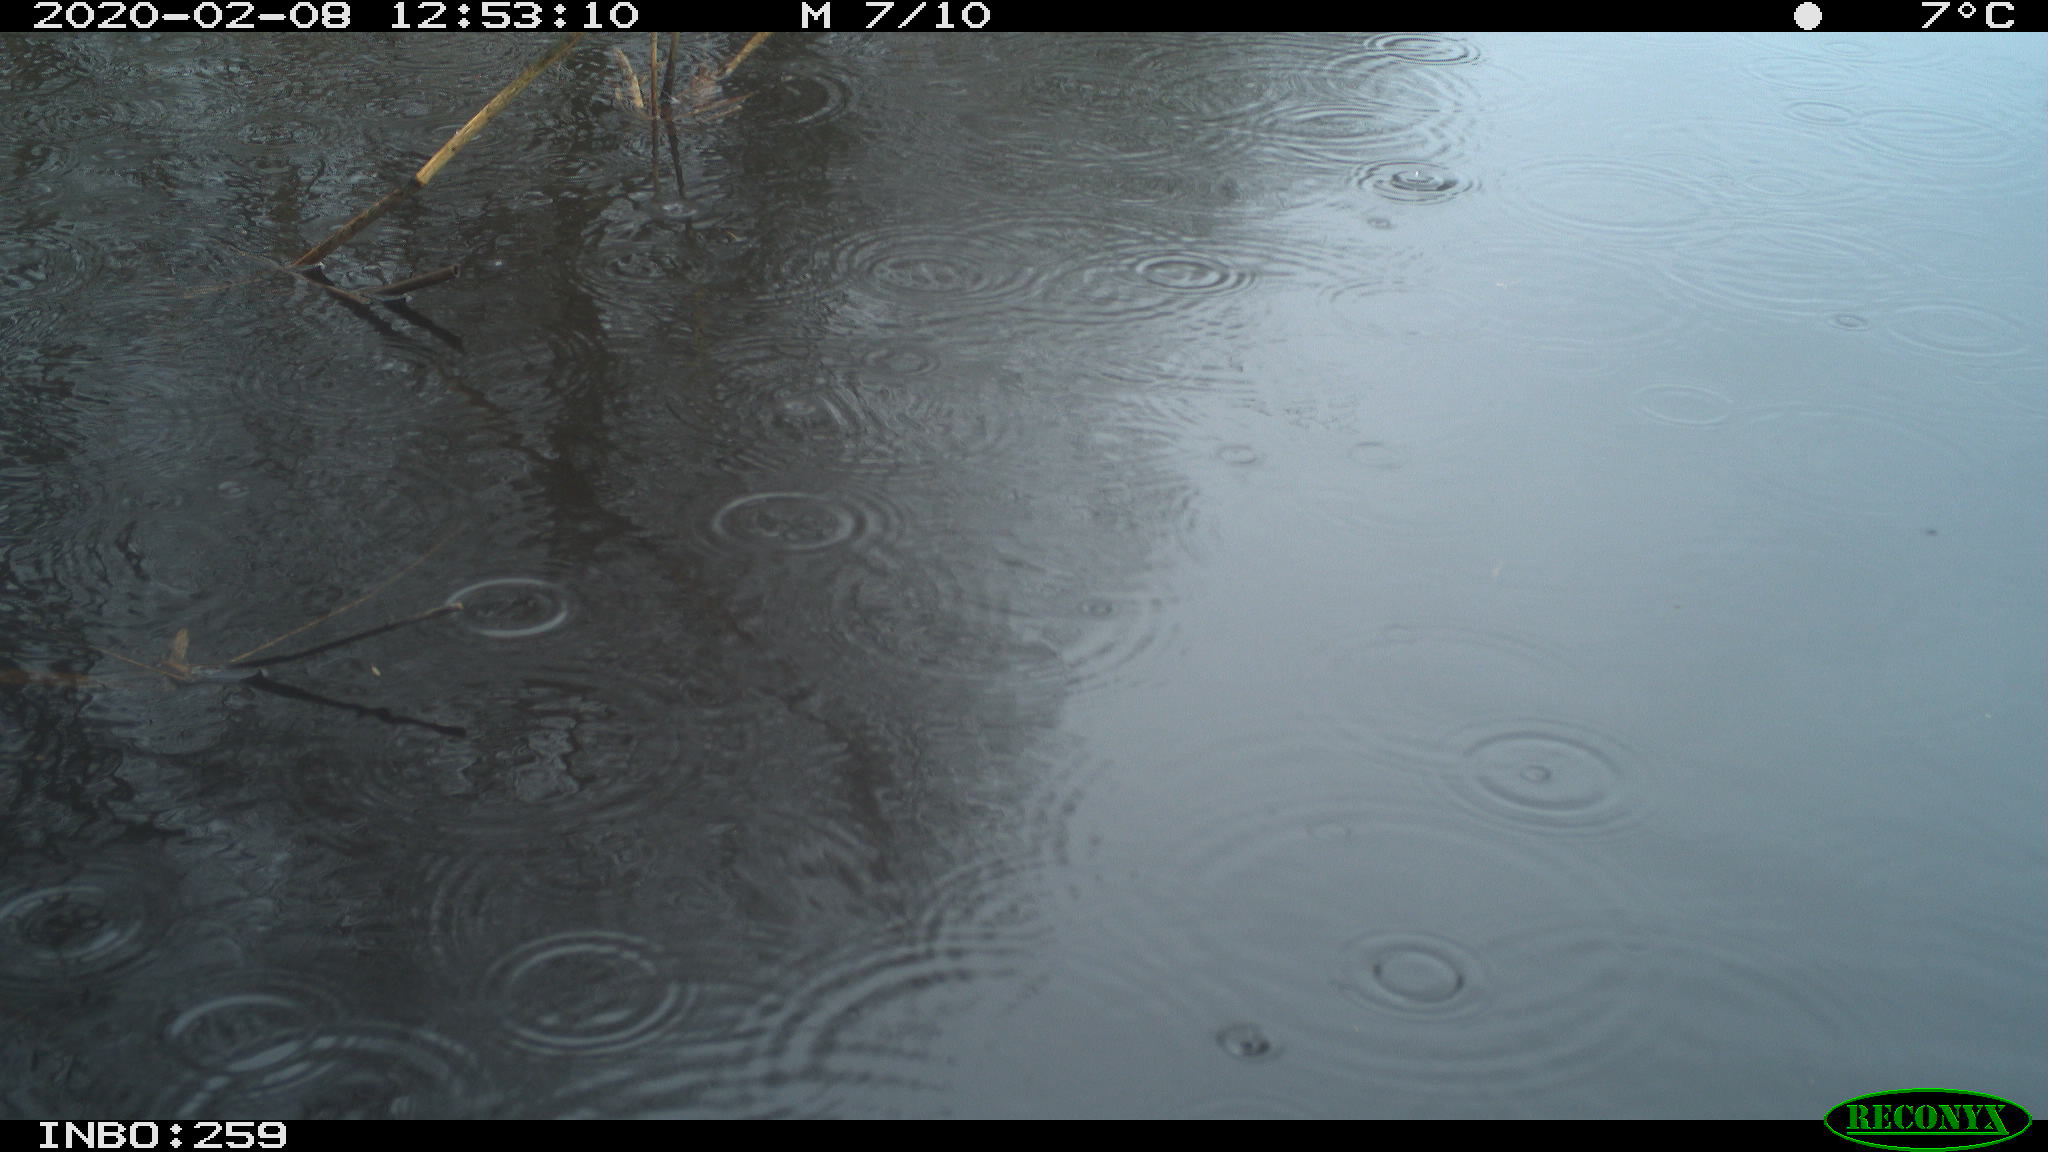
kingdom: Animalia
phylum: Chordata
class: Aves
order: Gruiformes
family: Rallidae
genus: Gallinula
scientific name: Gallinula chloropus
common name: Common moorhen
